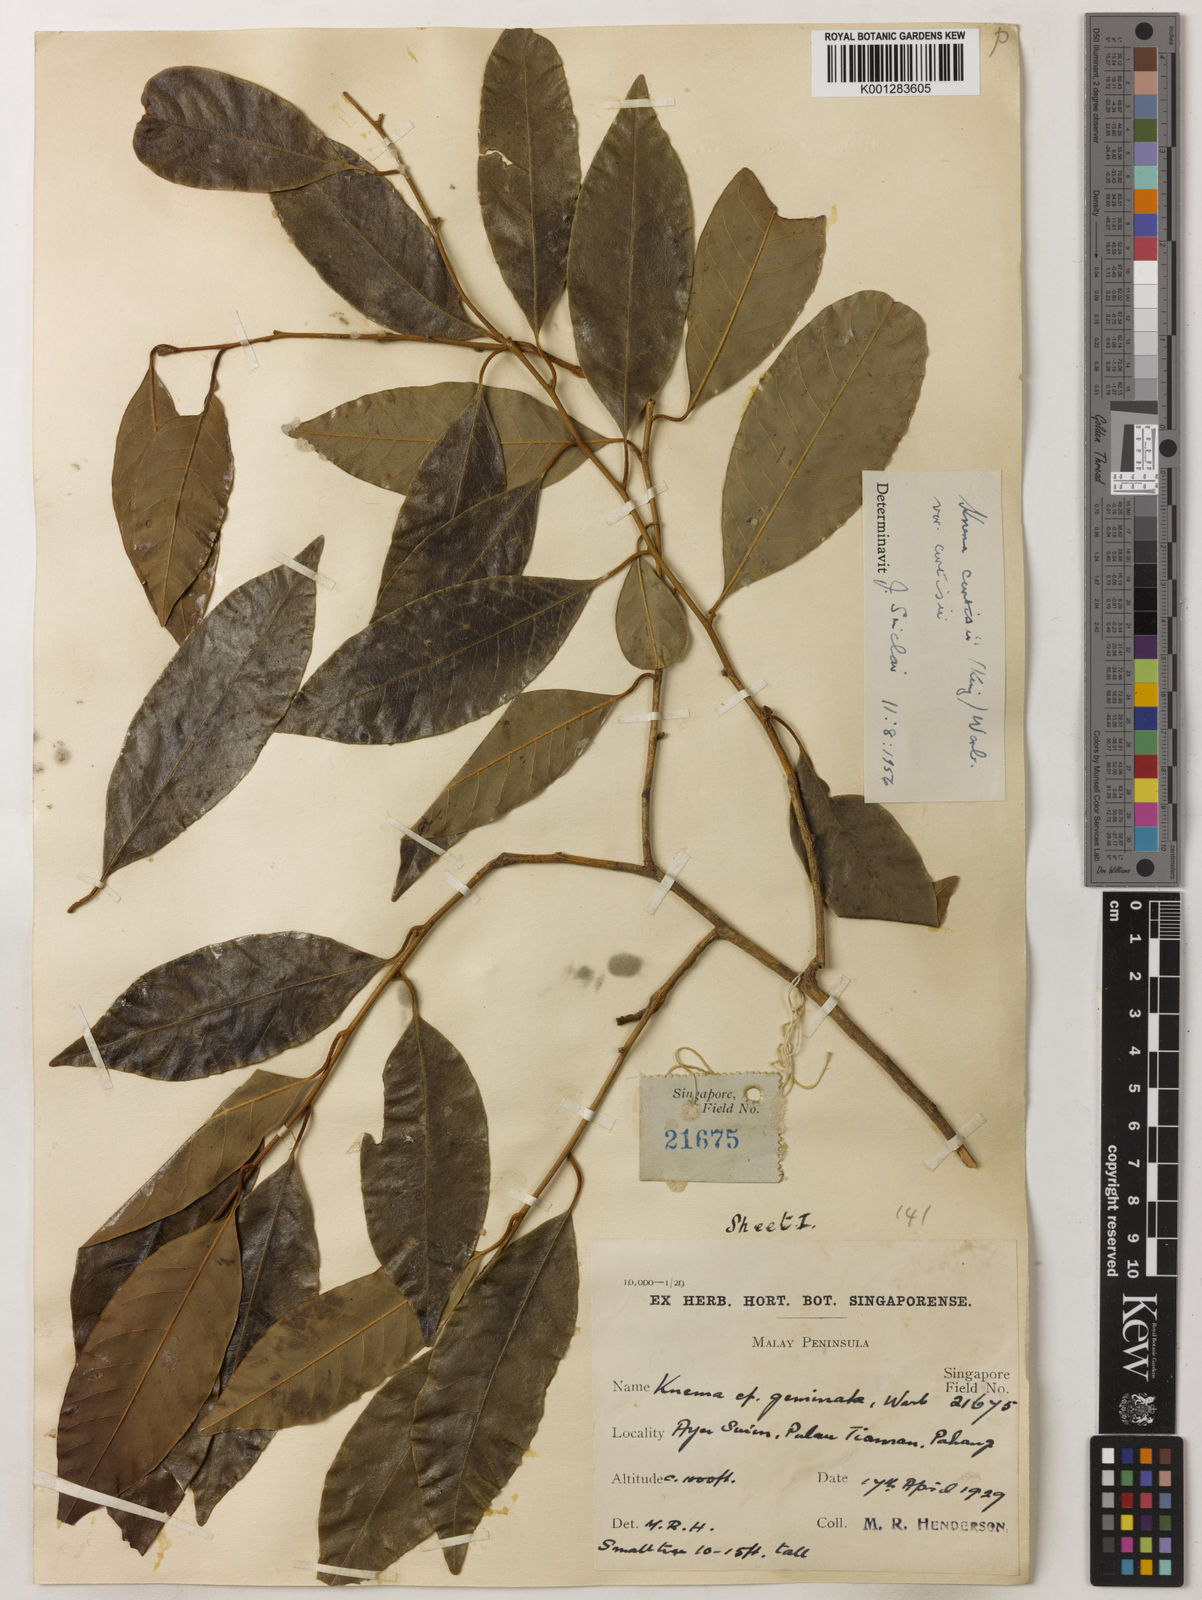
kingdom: Plantae
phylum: Tracheophyta
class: Magnoliopsida
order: Magnoliales
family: Myristicaceae
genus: Knema
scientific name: Knema curtisii
